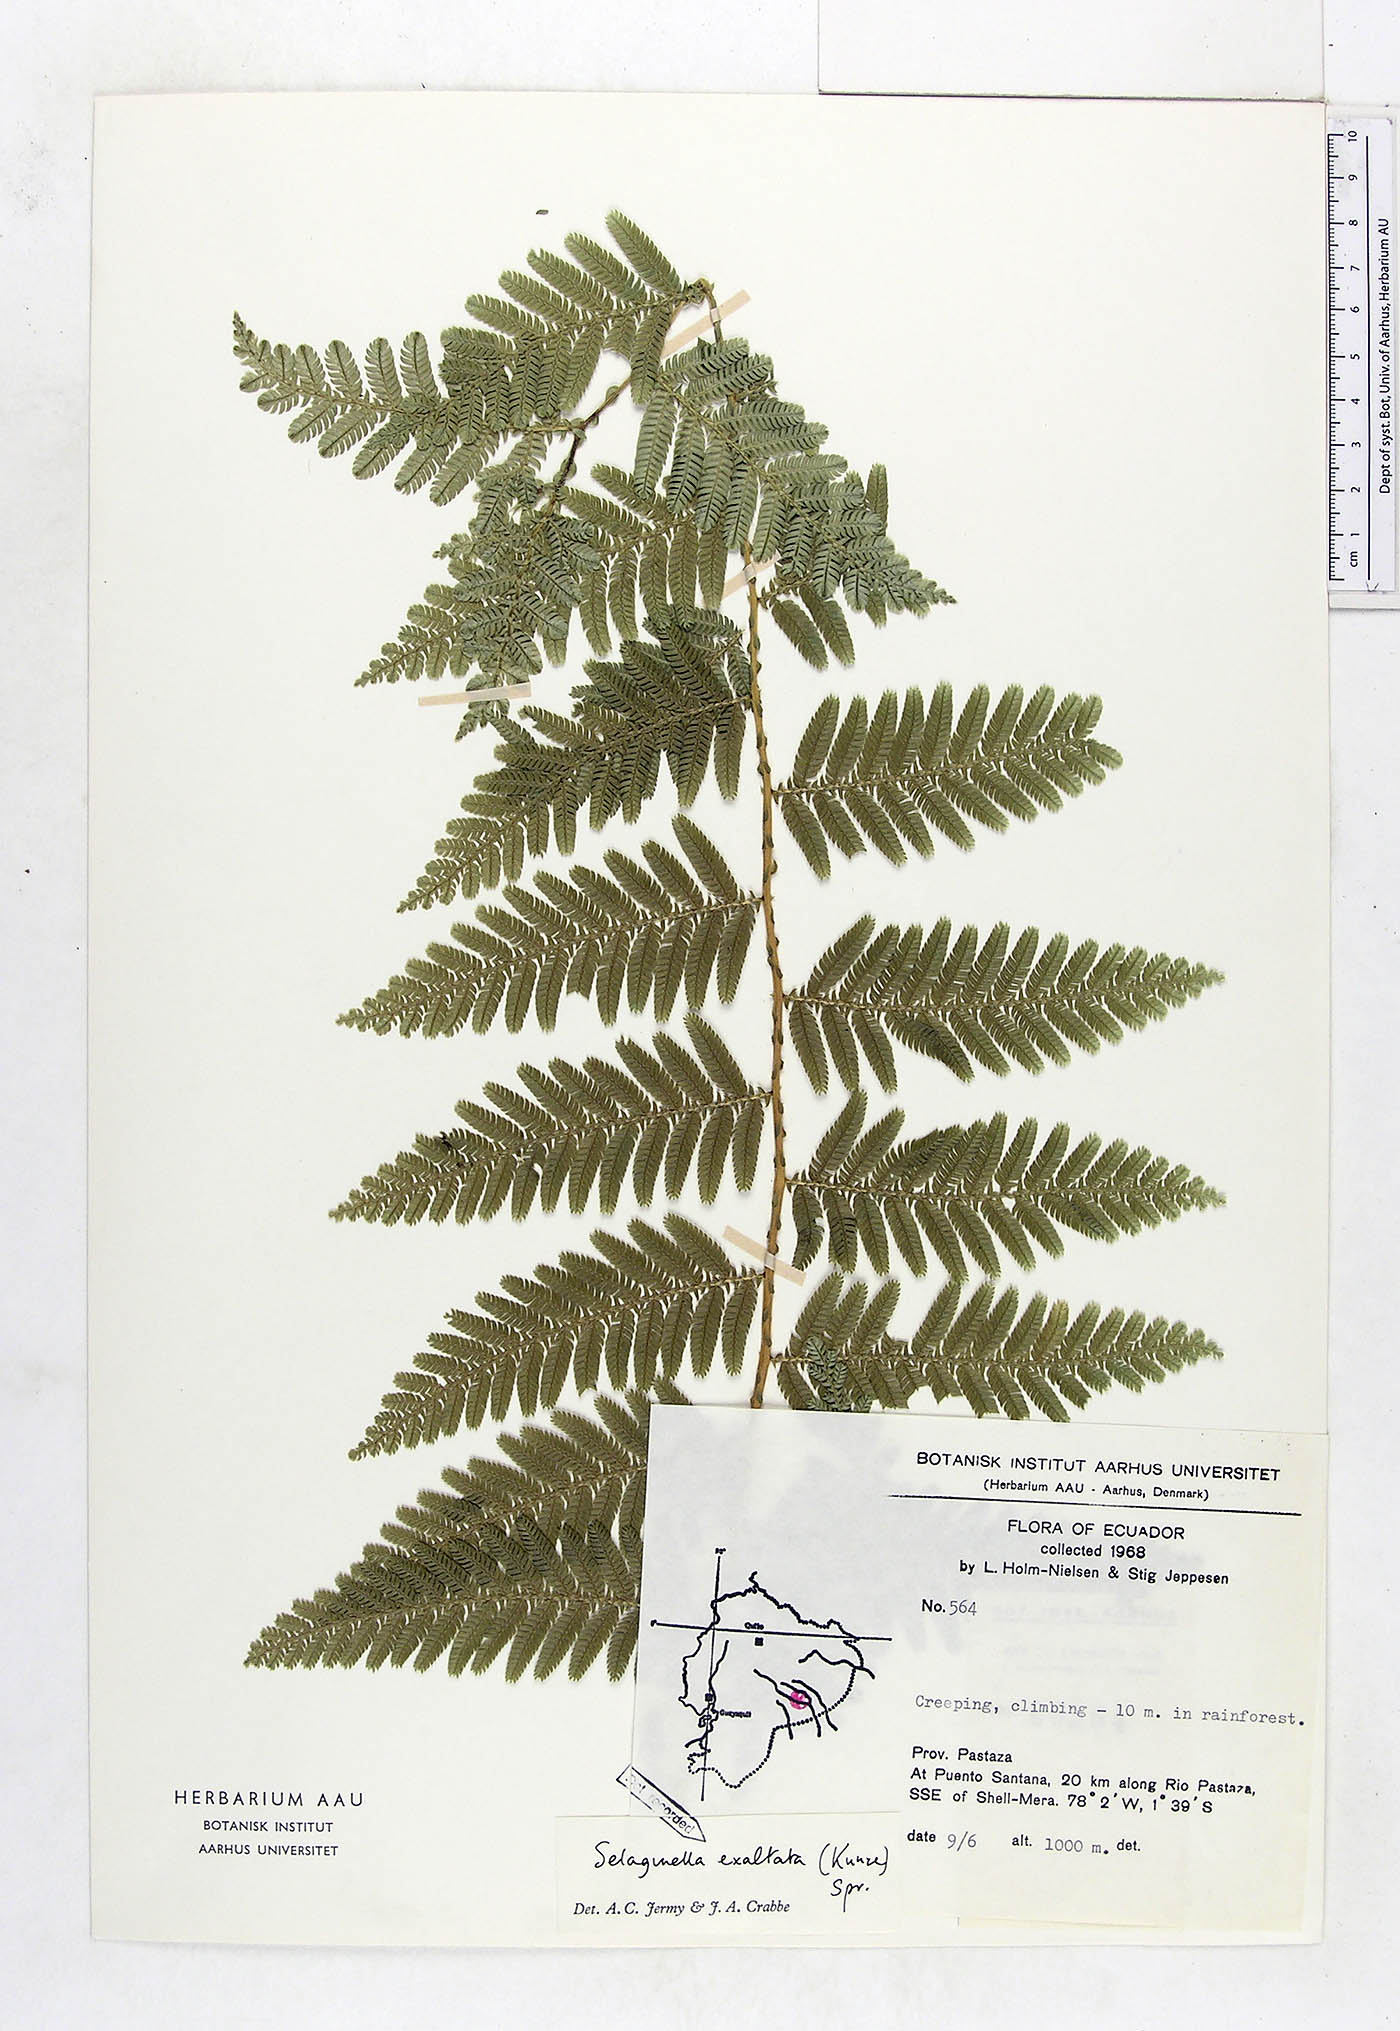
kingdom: Plantae
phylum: Tracheophyta
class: Lycopodiopsida
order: Selaginellales
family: Selaginellaceae
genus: Selaginella
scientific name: Selaginella exaltata
